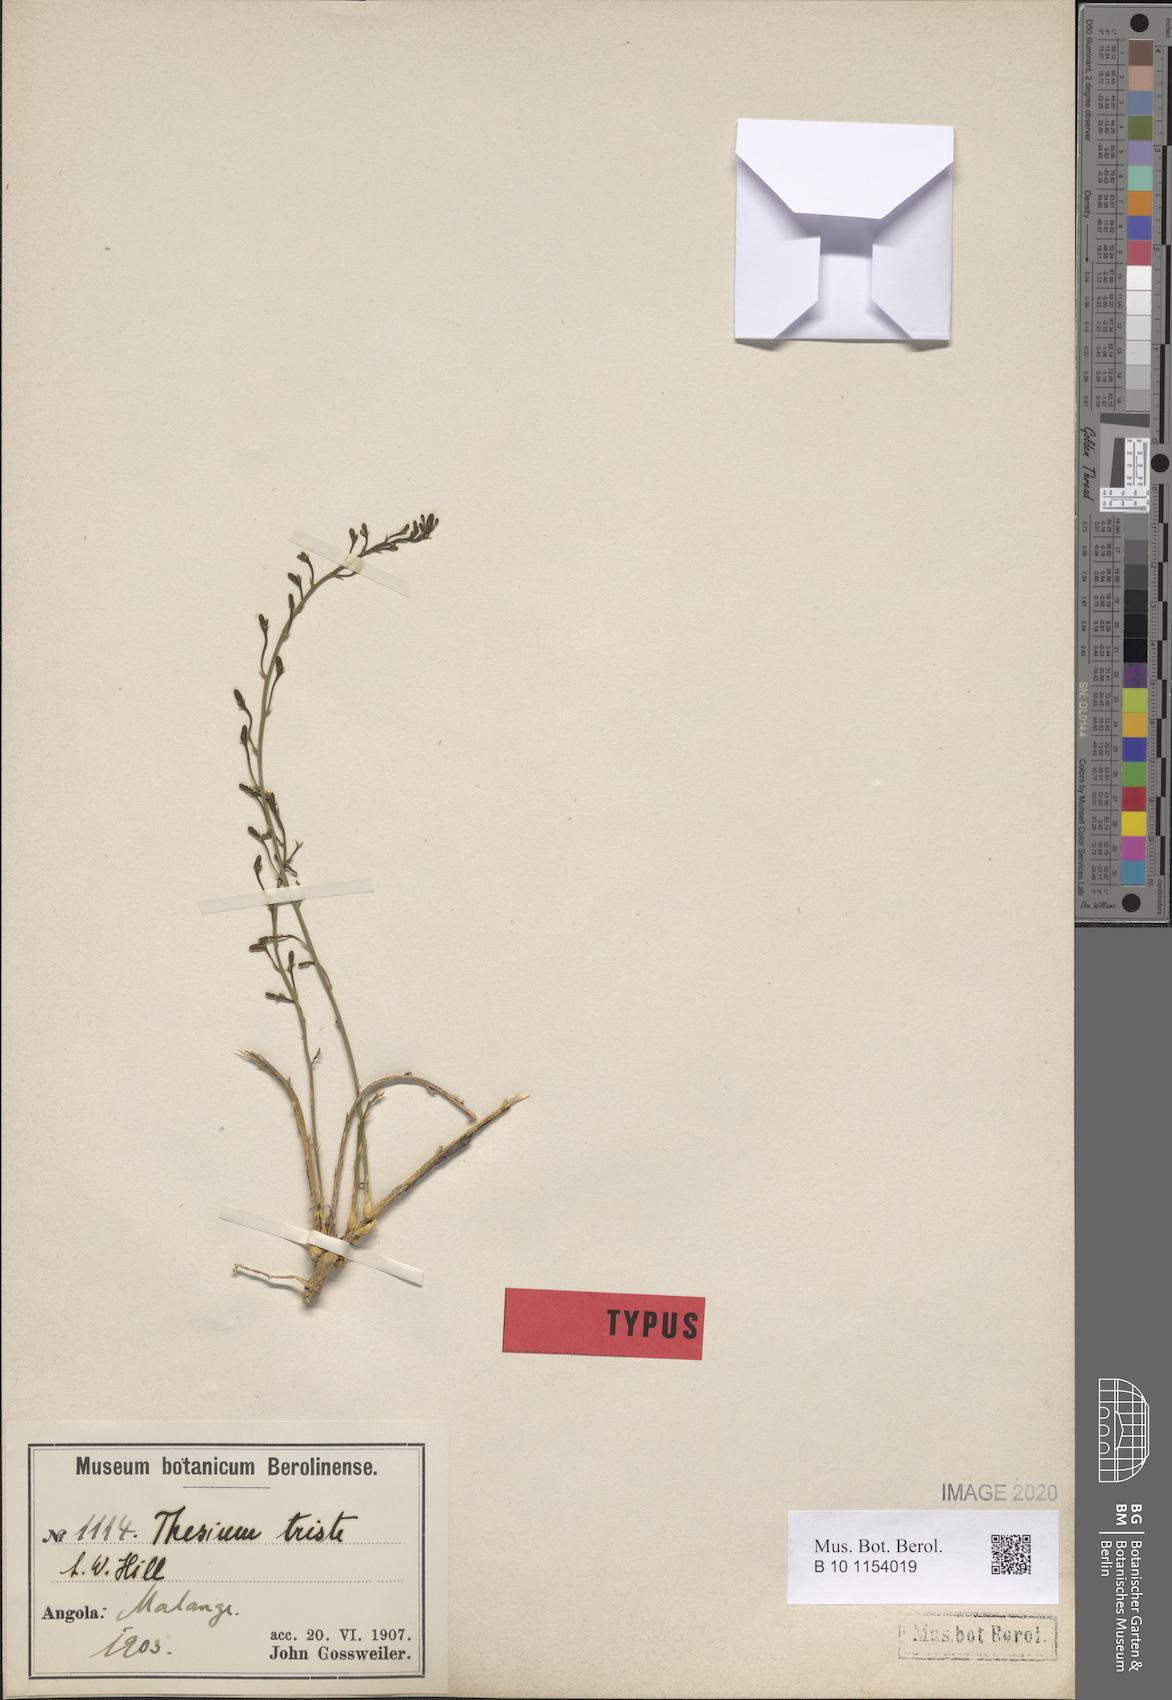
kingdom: Plantae
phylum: Tracheophyta
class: Magnoliopsida
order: Santalales
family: Thesiaceae
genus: Thesium
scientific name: Thesium triste
